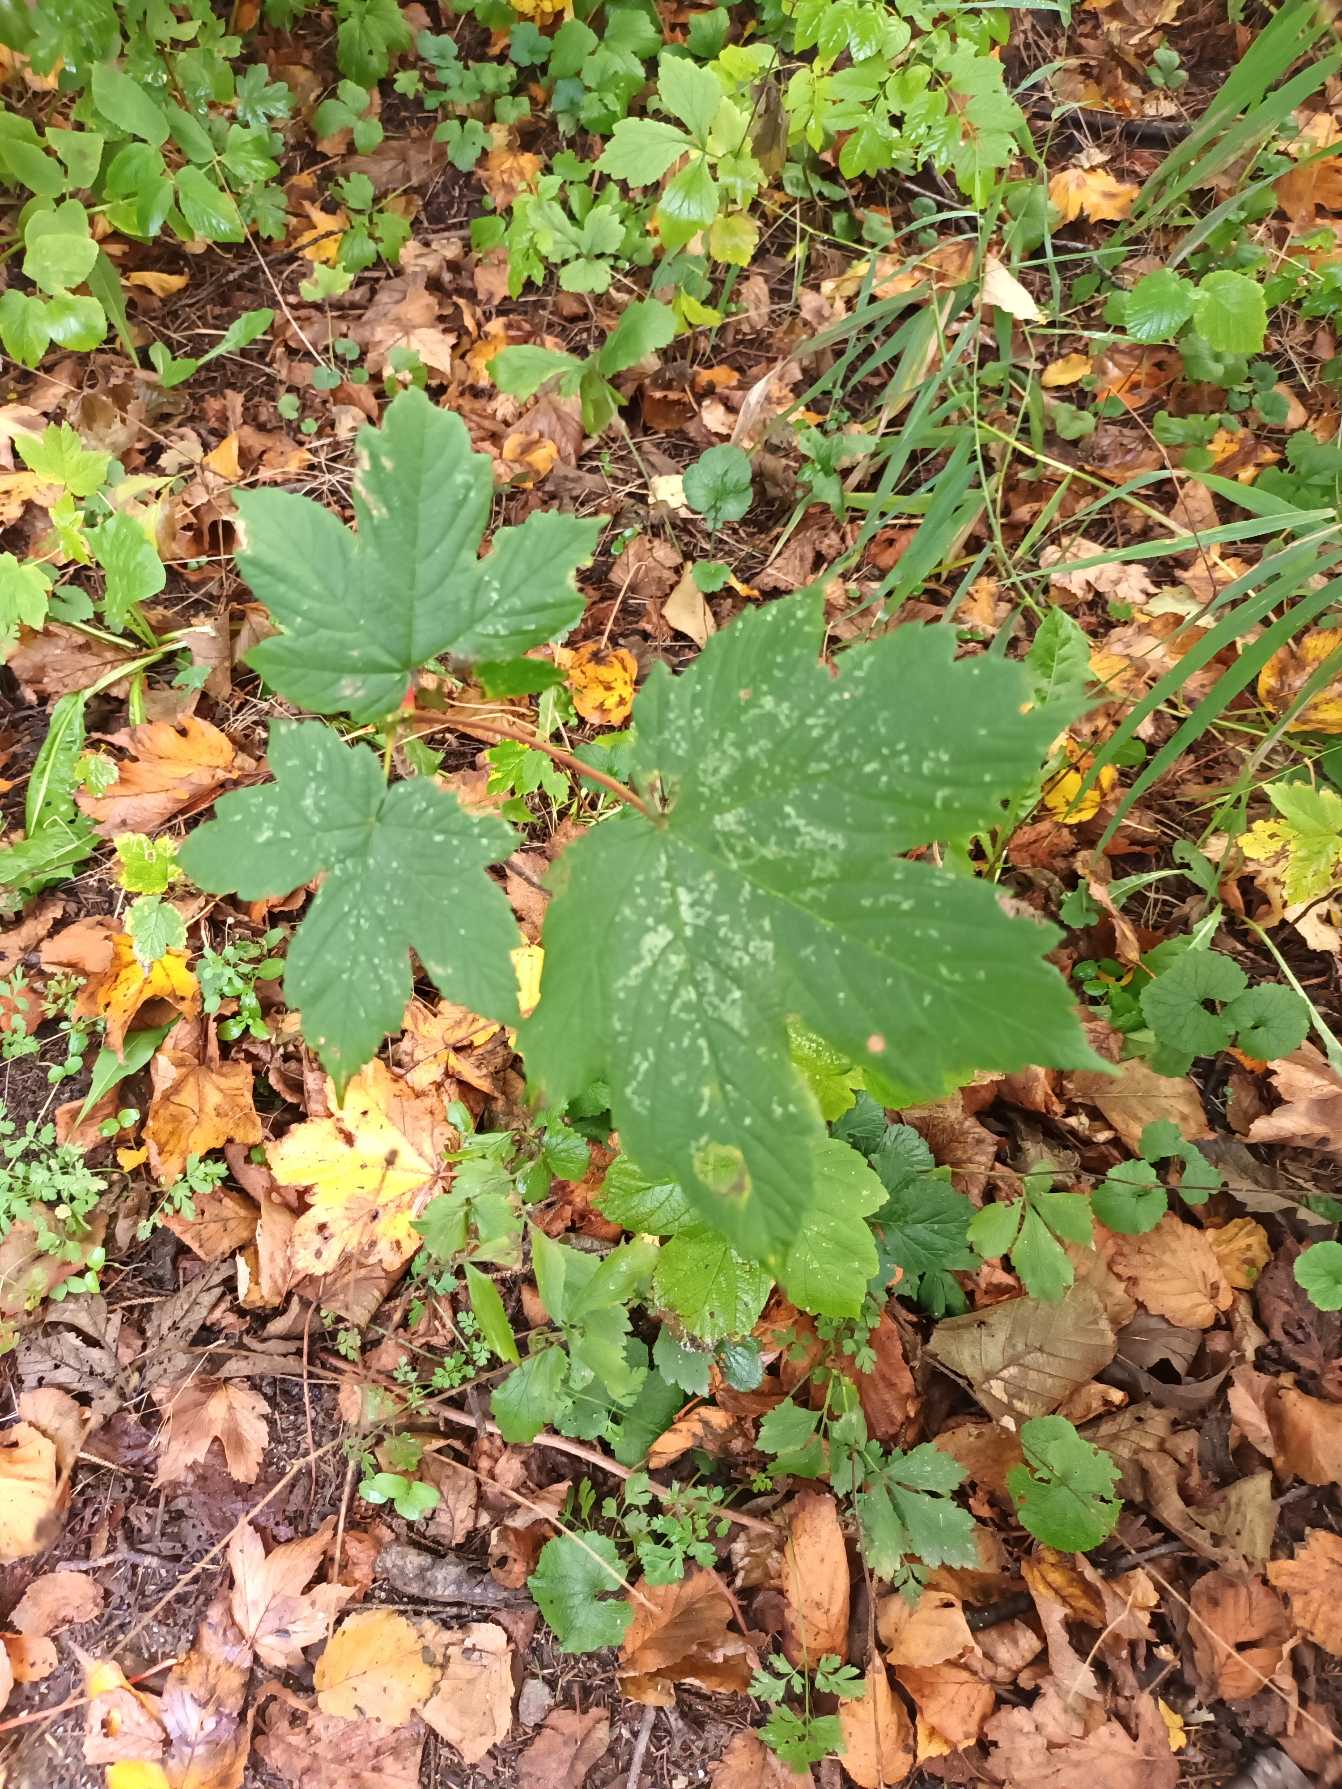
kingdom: Plantae
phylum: Tracheophyta
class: Magnoliopsida
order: Sapindales
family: Sapindaceae
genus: Acer
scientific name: Acer pseudoplatanus
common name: Ahorn
